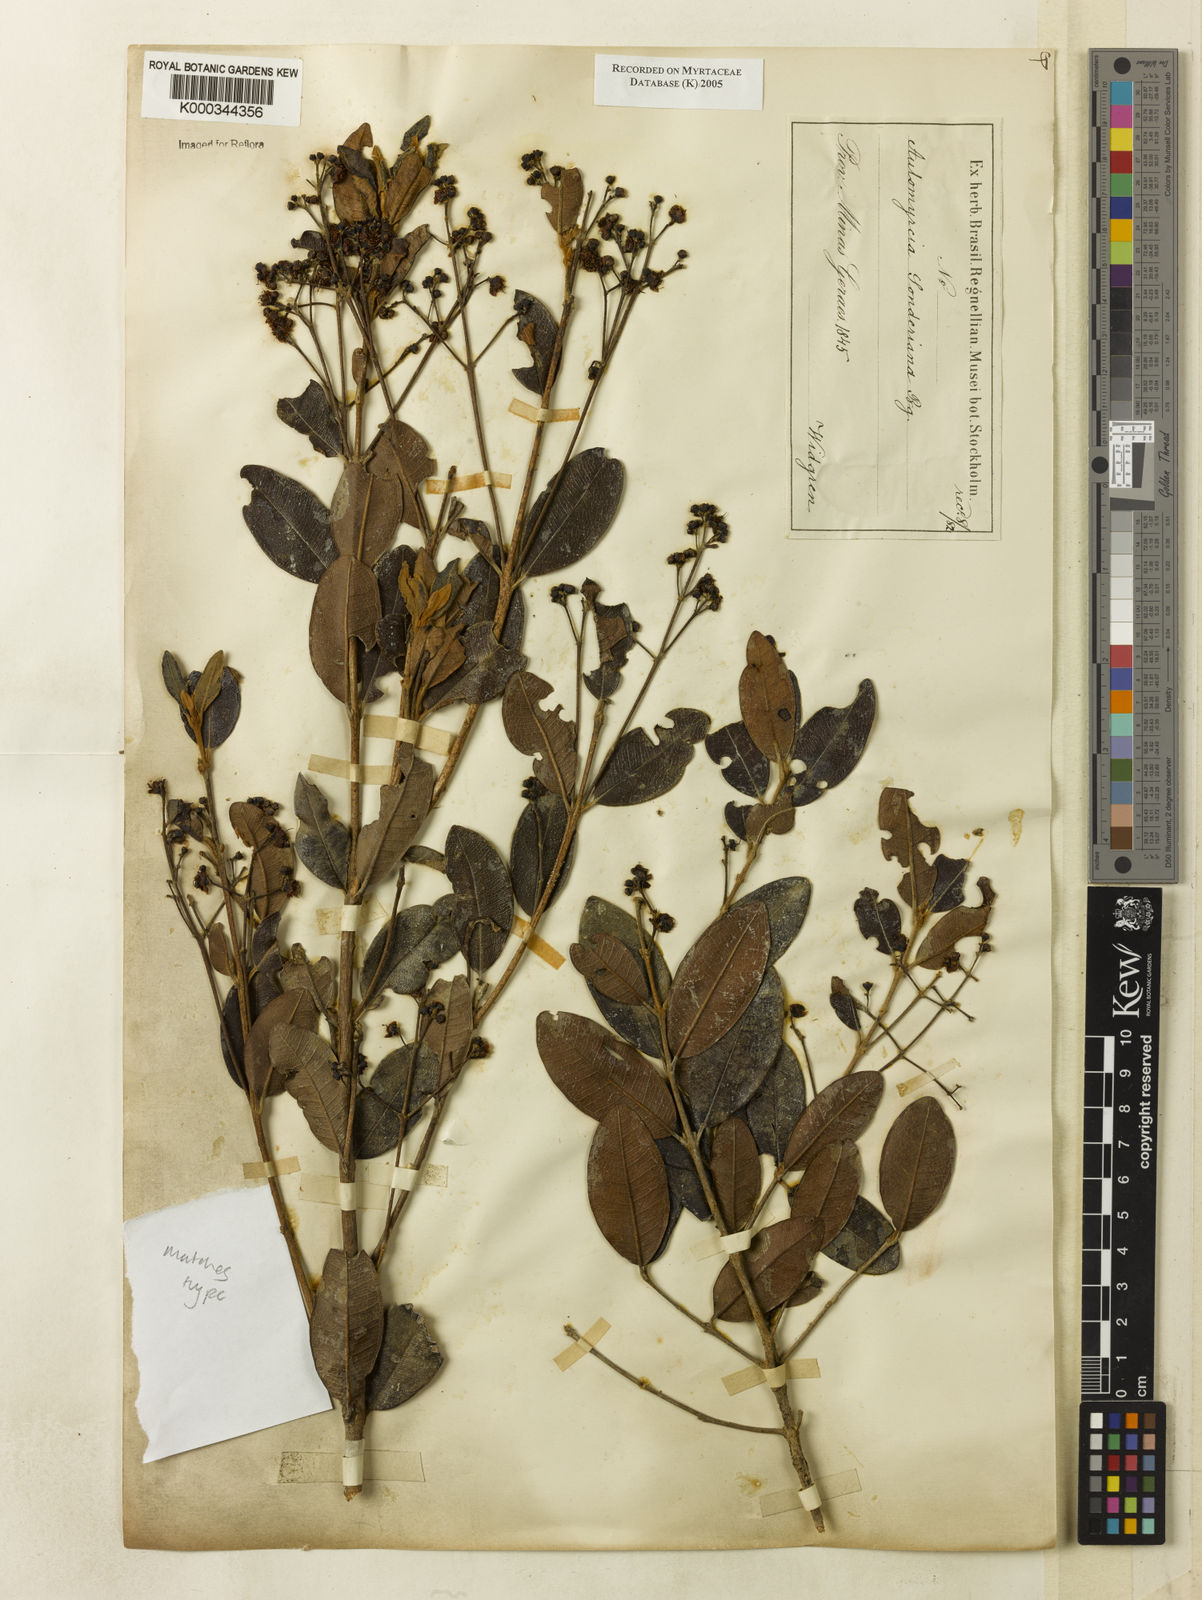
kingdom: Plantae
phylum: Tracheophyta
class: Magnoliopsida
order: Myrtales
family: Myrtaceae
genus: Myrcia
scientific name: Myrcia venulosa
